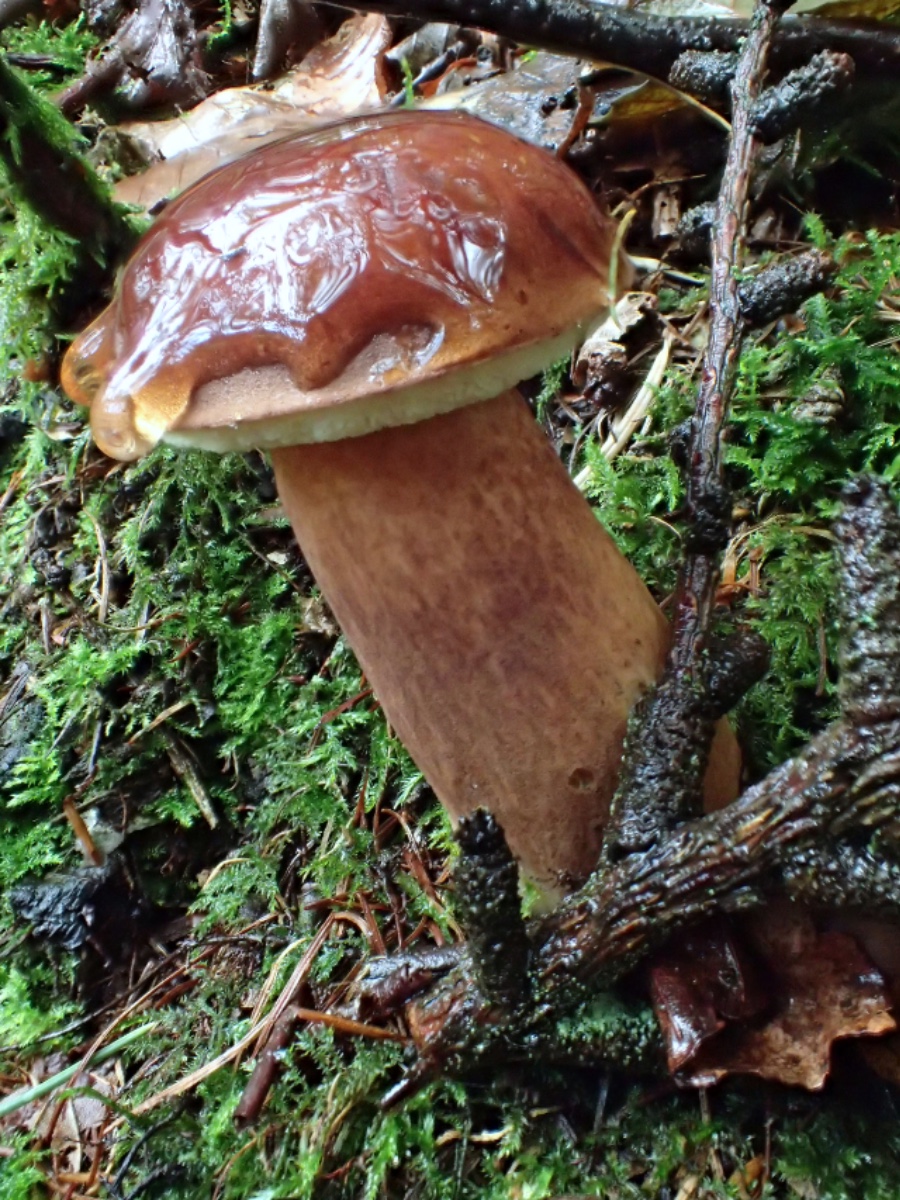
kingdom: Fungi
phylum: Basidiomycota
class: Agaricomycetes
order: Boletales
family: Boletaceae
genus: Imleria
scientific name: Imleria badia
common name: brunstokket rørhat
